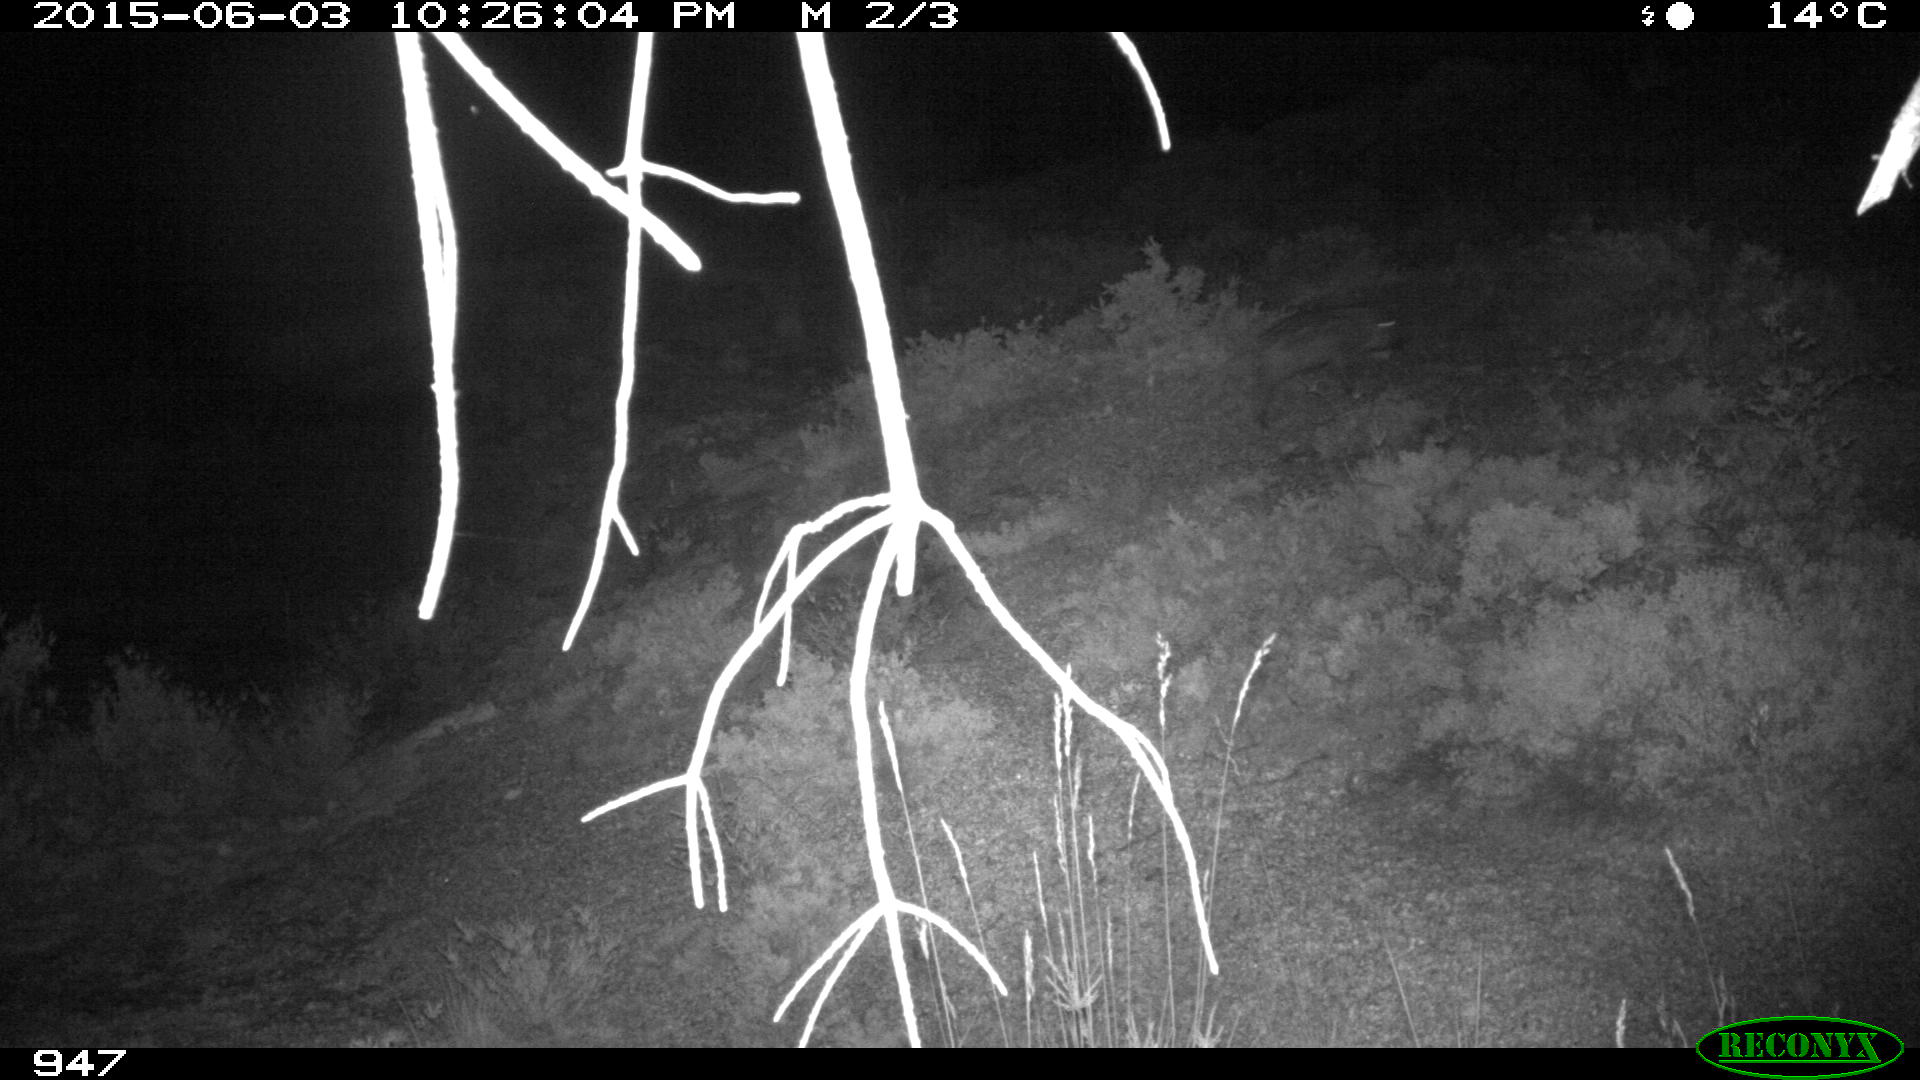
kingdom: Animalia
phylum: Chordata
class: Mammalia
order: Artiodactyla
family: Suidae
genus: Sus
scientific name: Sus scrofa
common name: Wild boar
